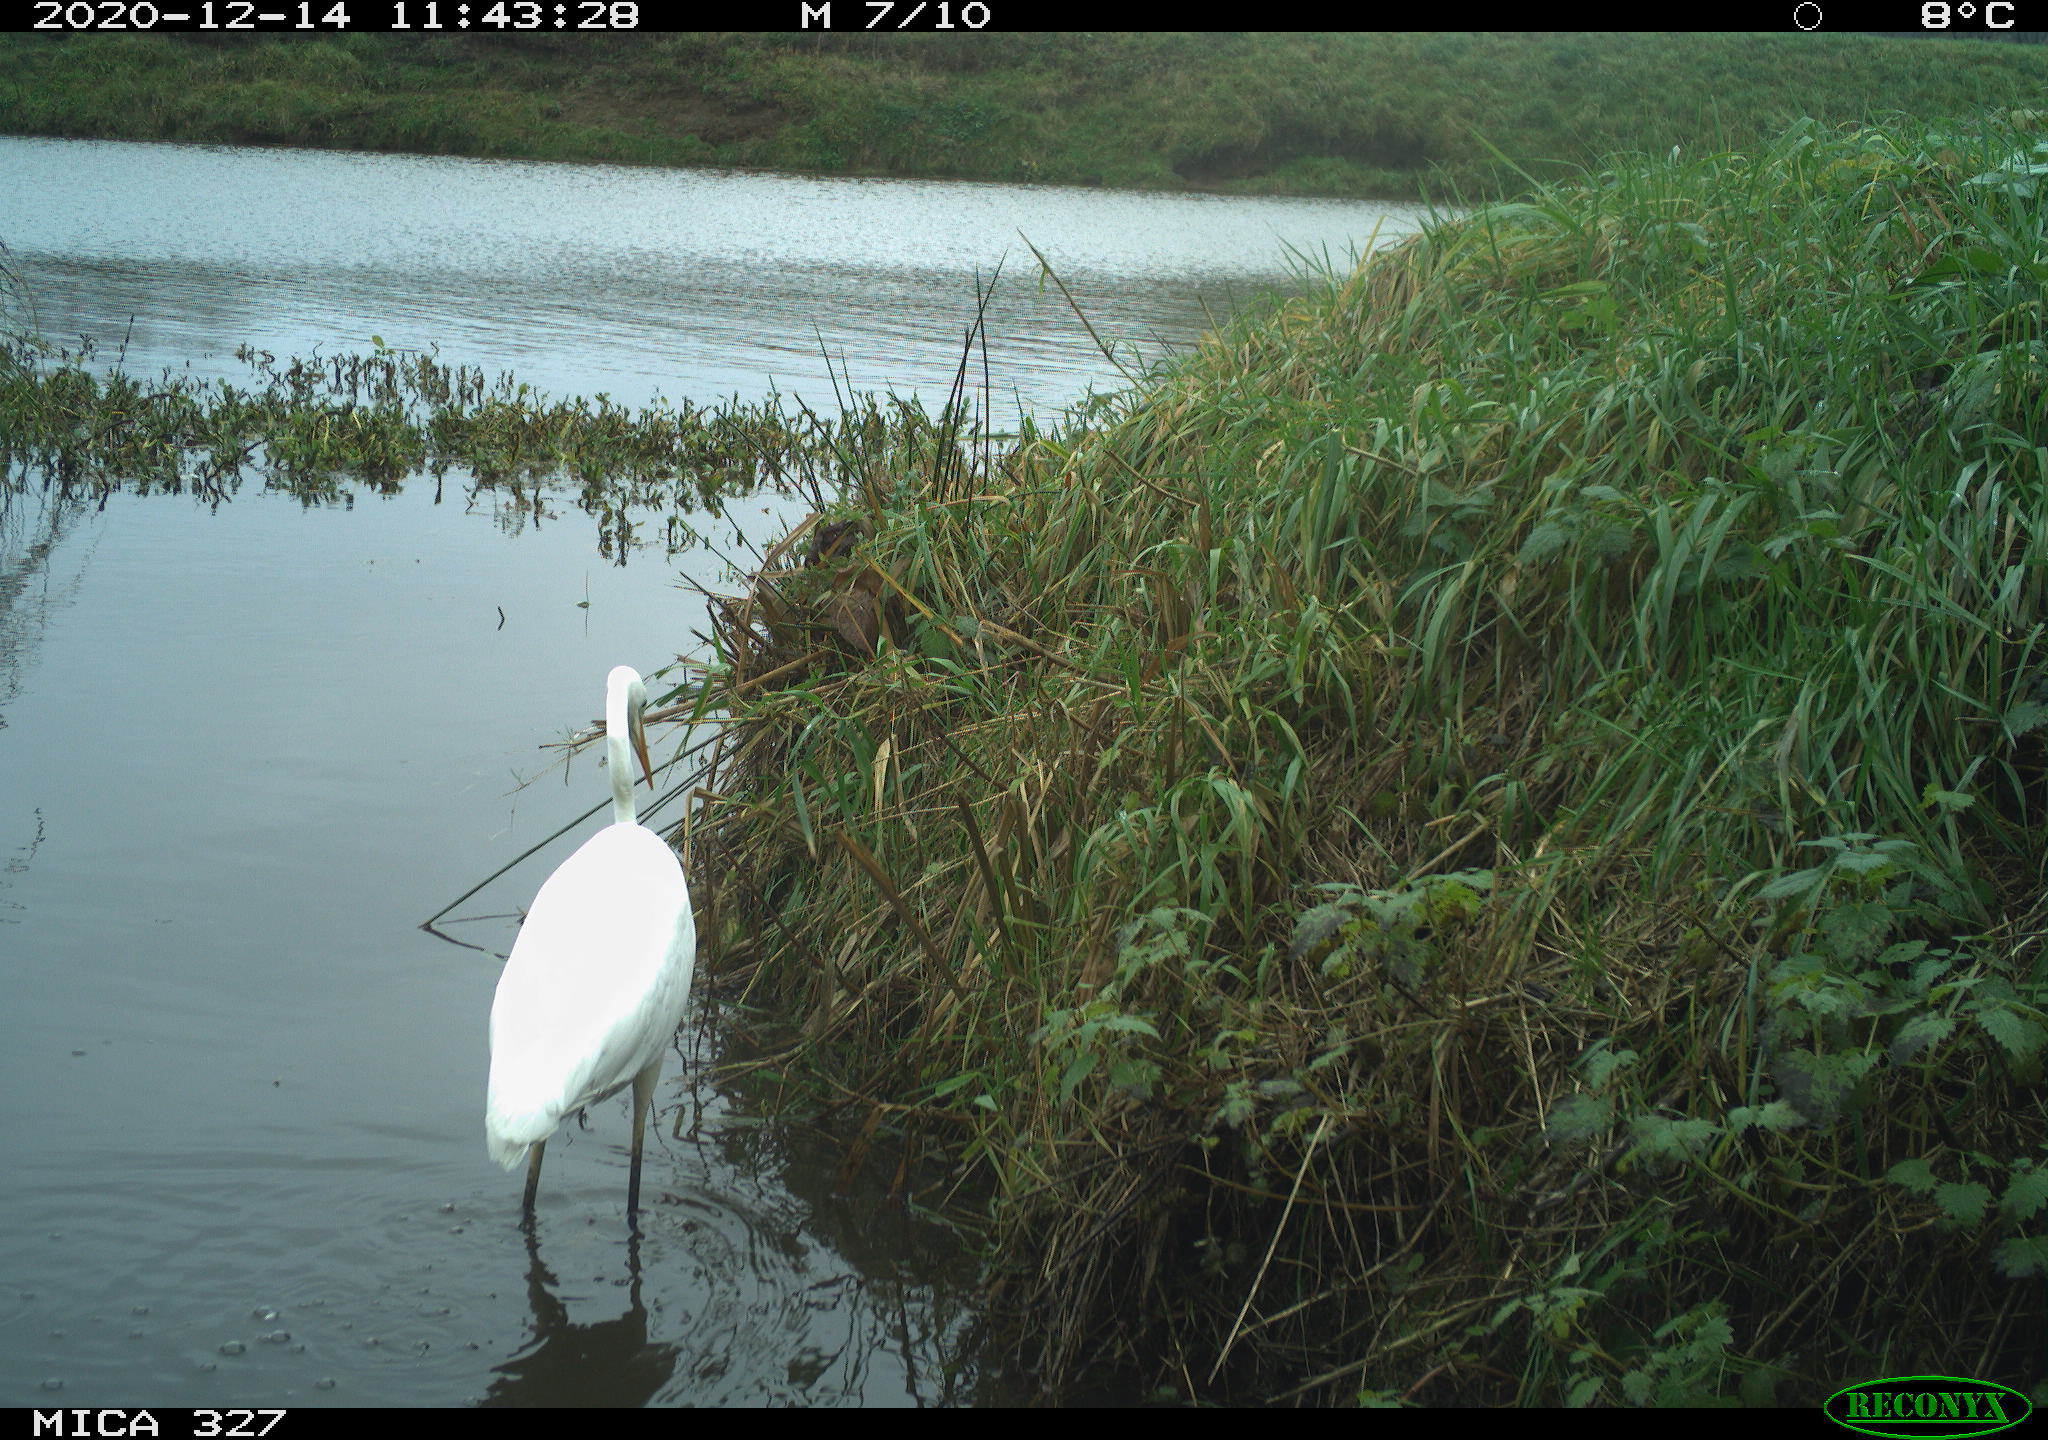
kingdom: Animalia
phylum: Chordata
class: Aves
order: Pelecaniformes
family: Ardeidae
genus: Ardea
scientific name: Ardea alba
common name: Great egret
